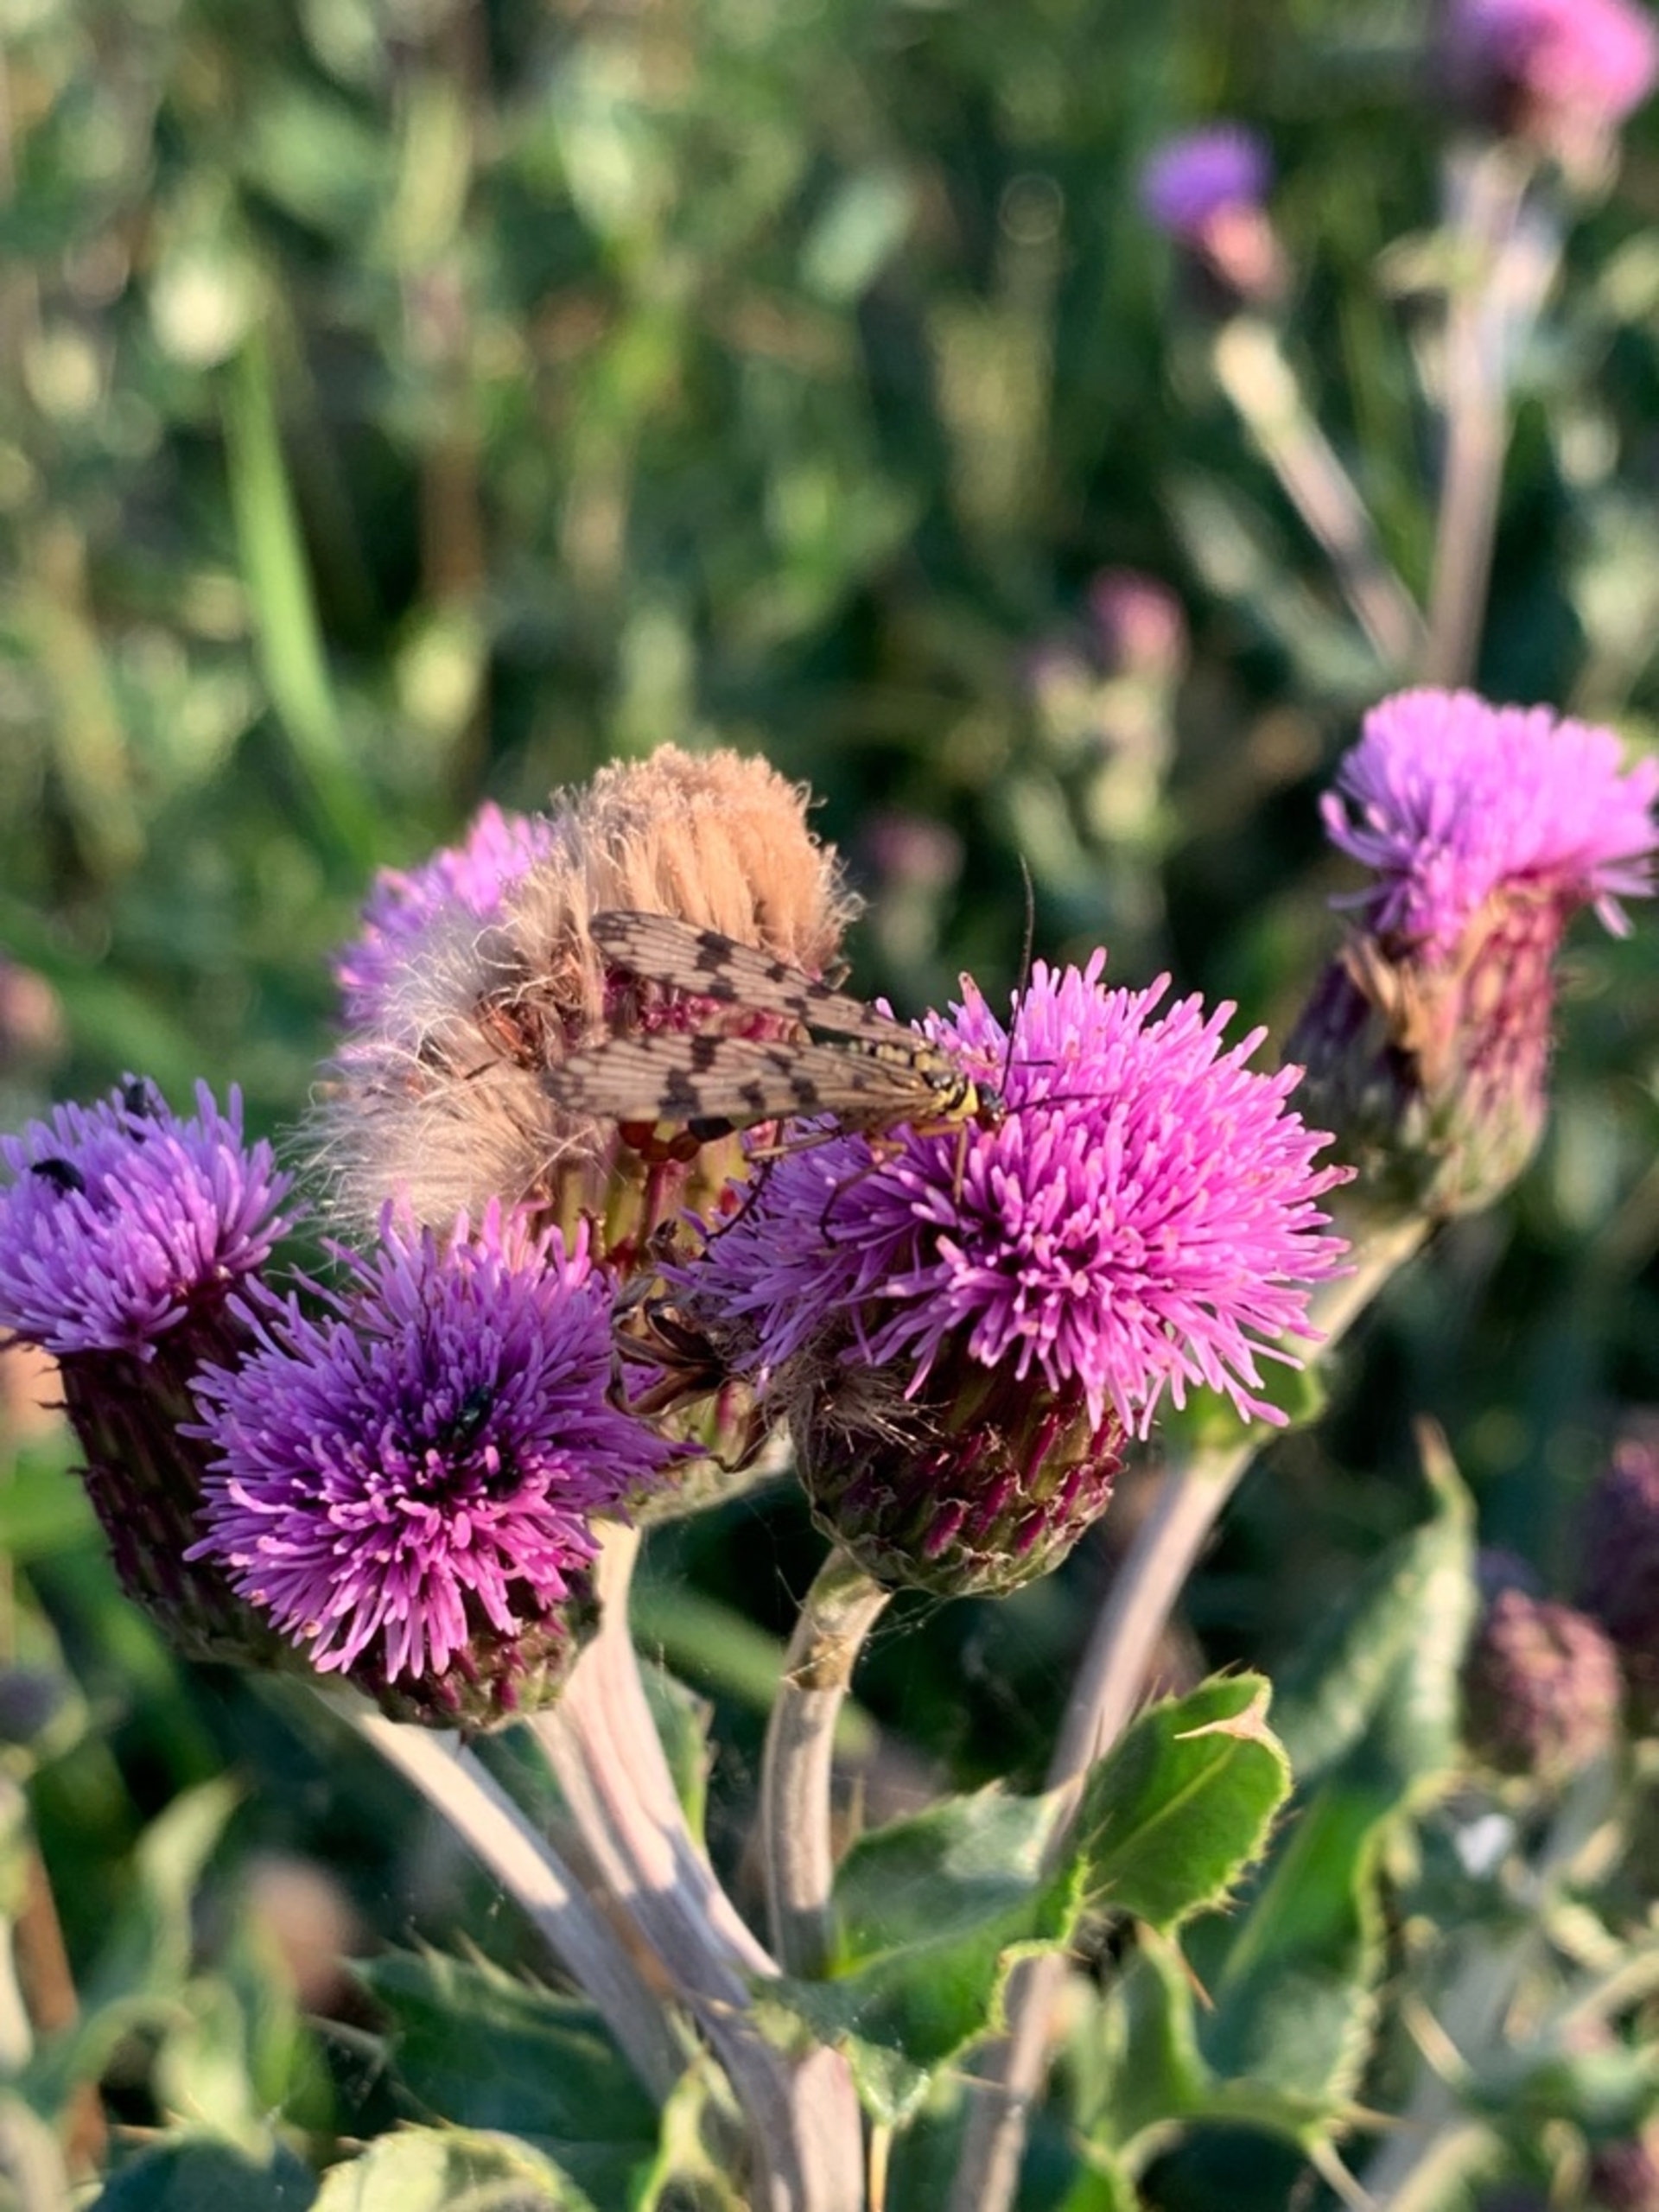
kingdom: Animalia
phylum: Arthropoda
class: Insecta
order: Mecoptera
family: Panorpidae
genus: Panorpa
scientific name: Panorpa communis
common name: Almindelig skorpionflue
